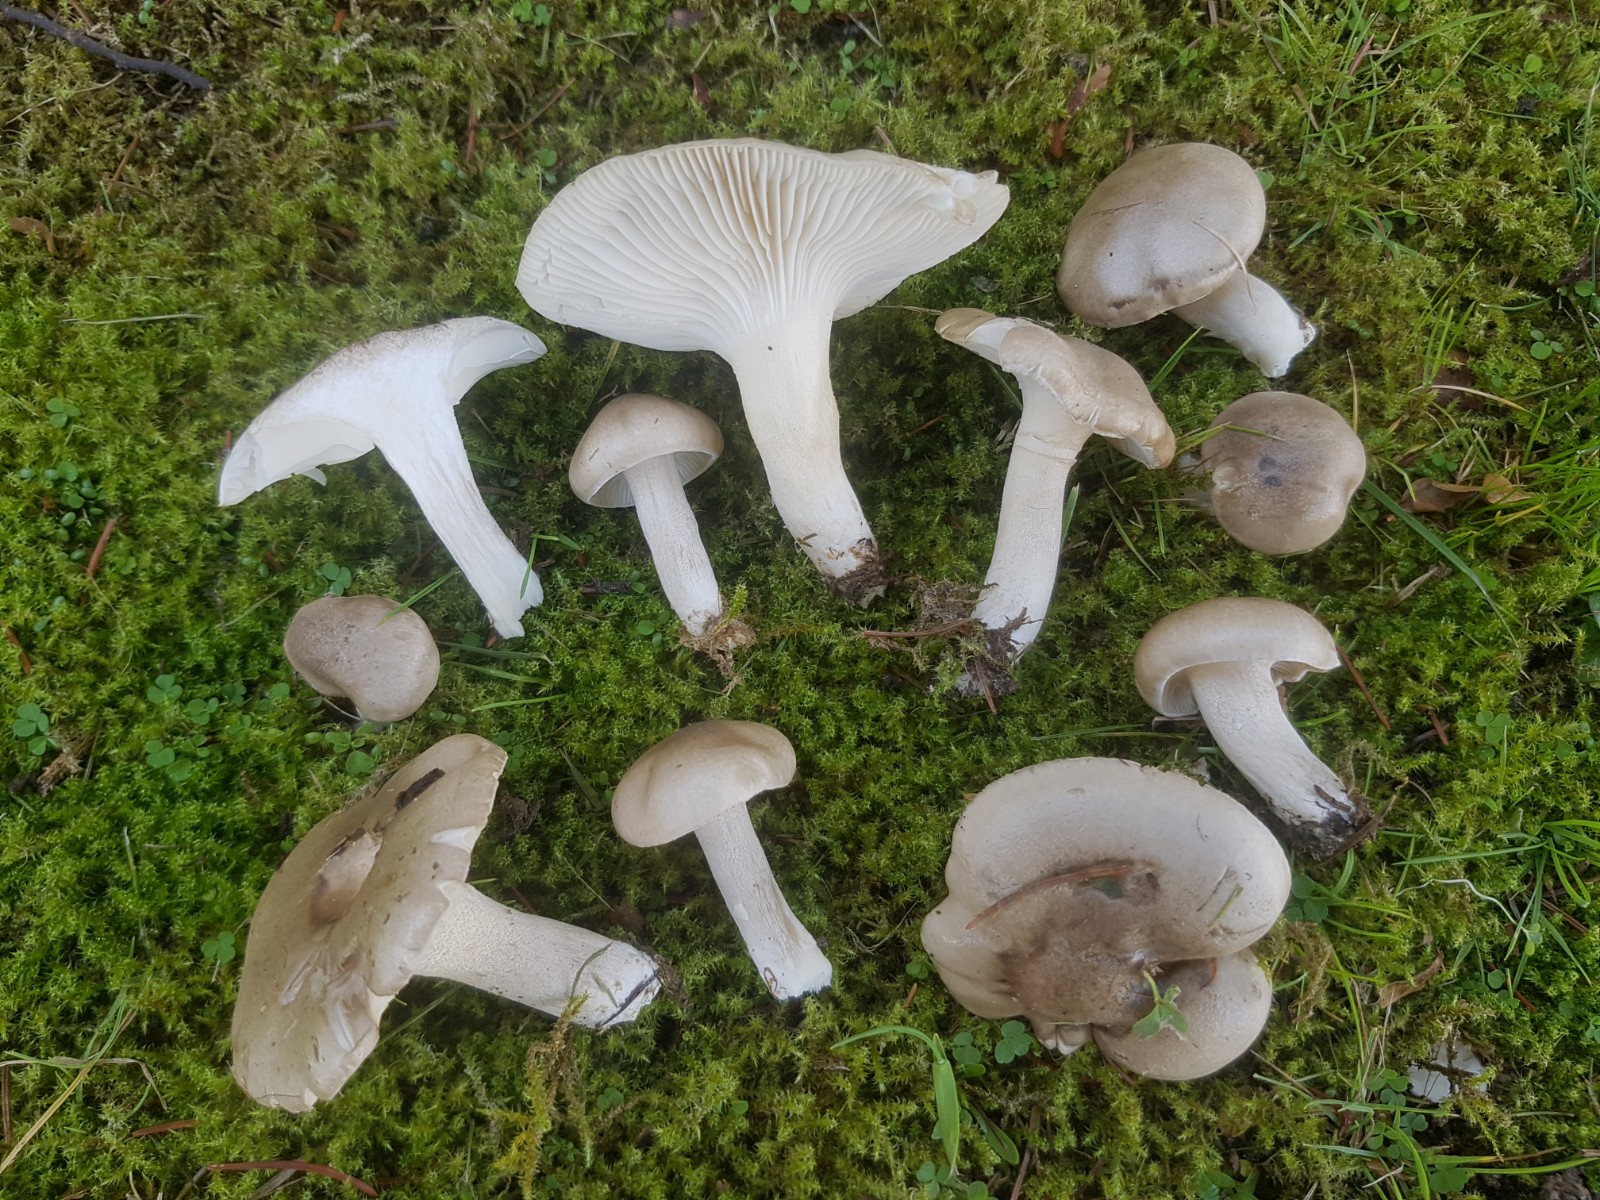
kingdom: Fungi
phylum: Basidiomycota
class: Agaricomycetes
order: Agaricales
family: Hygrophoraceae
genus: Hygrophorus
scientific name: Hygrophorus agathosmus
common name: vellugtende sneglehat
